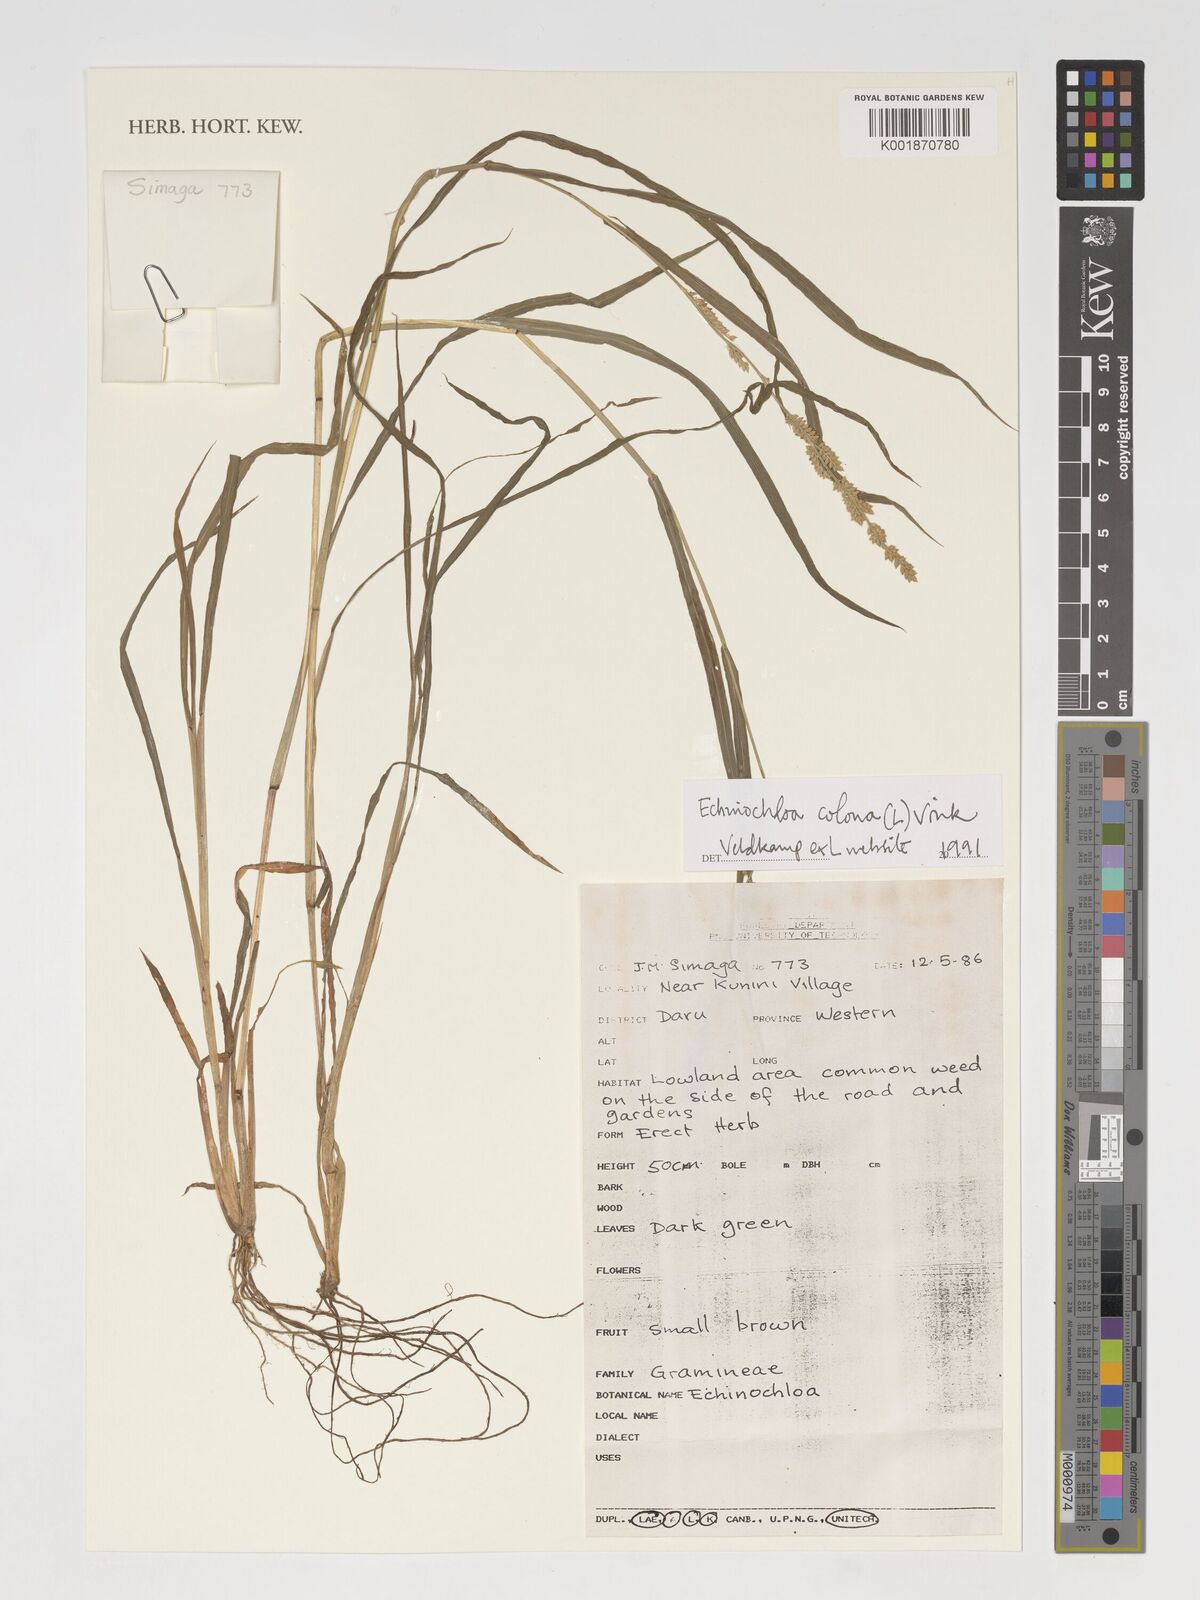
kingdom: Plantae
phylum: Tracheophyta
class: Liliopsida
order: Poales
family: Poaceae
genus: Echinochloa
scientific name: Echinochloa
